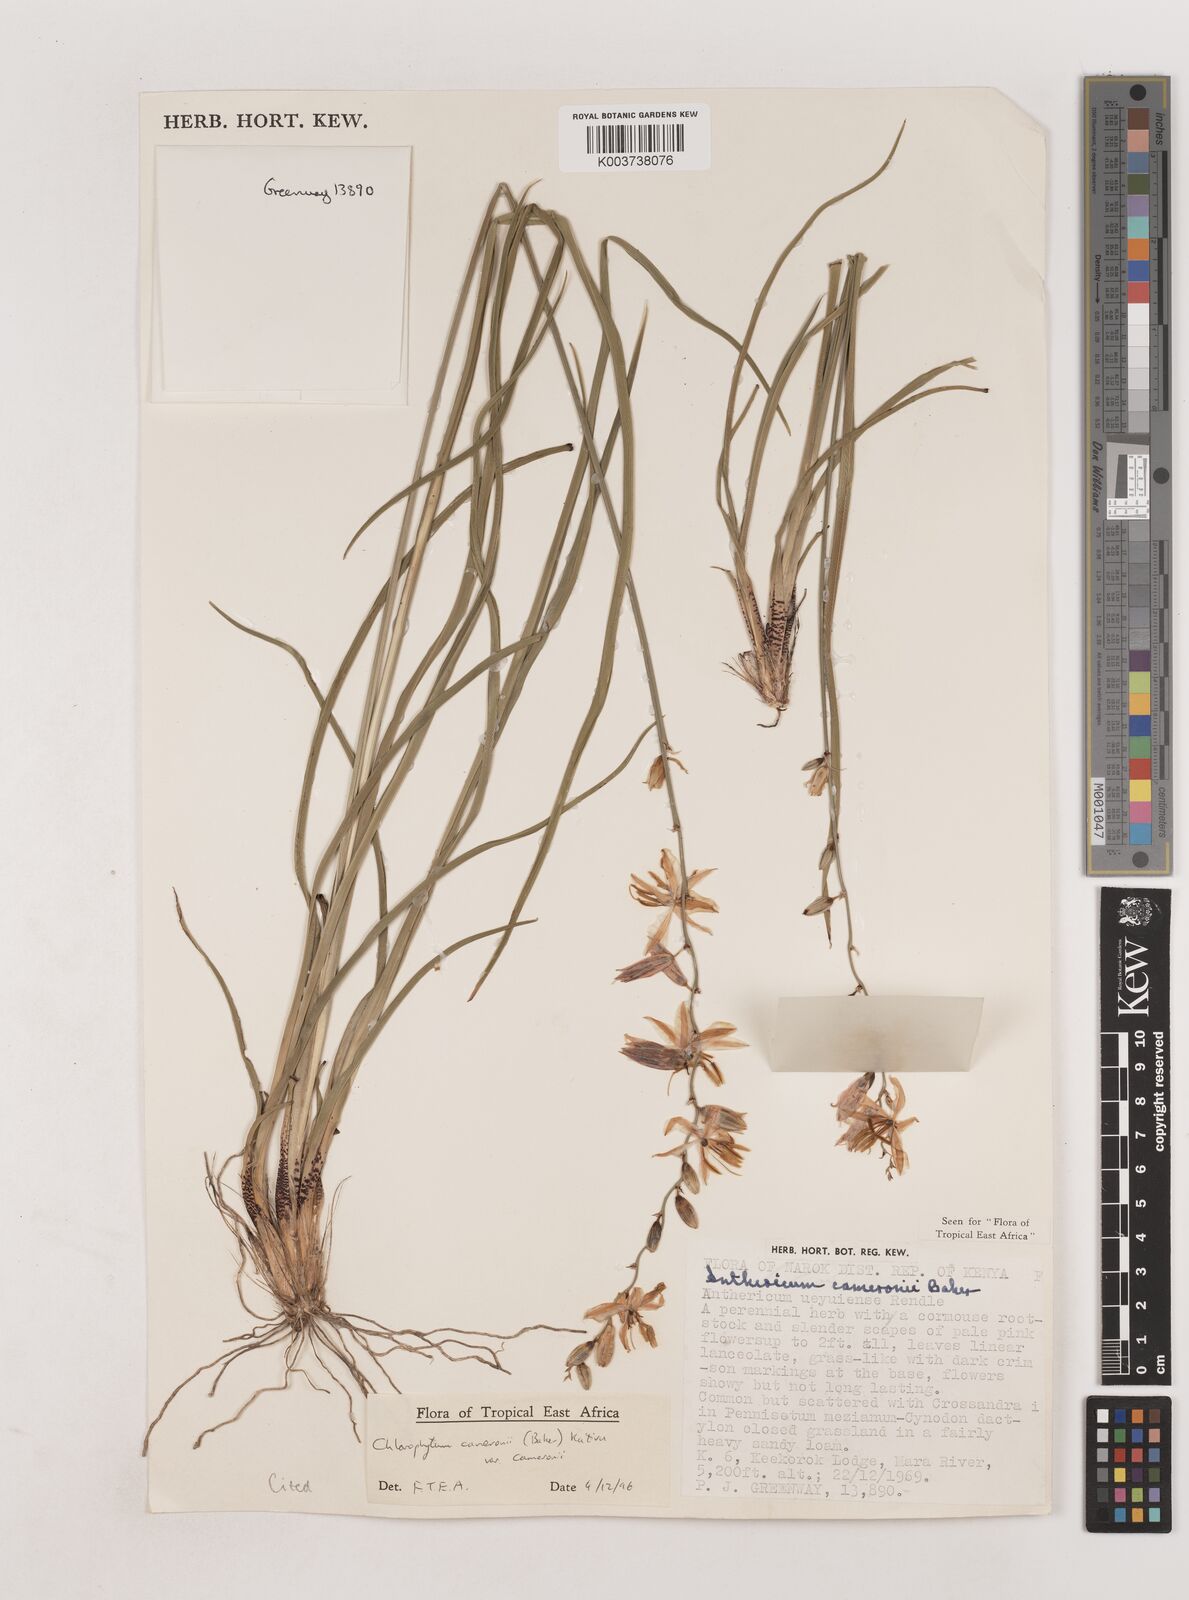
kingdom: Plantae
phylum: Tracheophyta
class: Liliopsida
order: Asparagales
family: Asparagaceae
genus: Chlorophytum
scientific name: Chlorophytum cameronii
